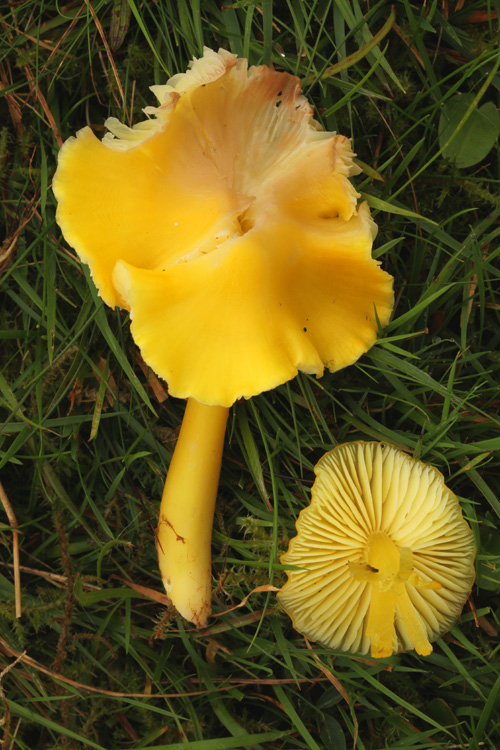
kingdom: Fungi
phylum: Basidiomycota
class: Agaricomycetes
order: Agaricales
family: Hygrophoraceae
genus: Hygrocybe
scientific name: Hygrocybe chlorophana
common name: gul vokshat
